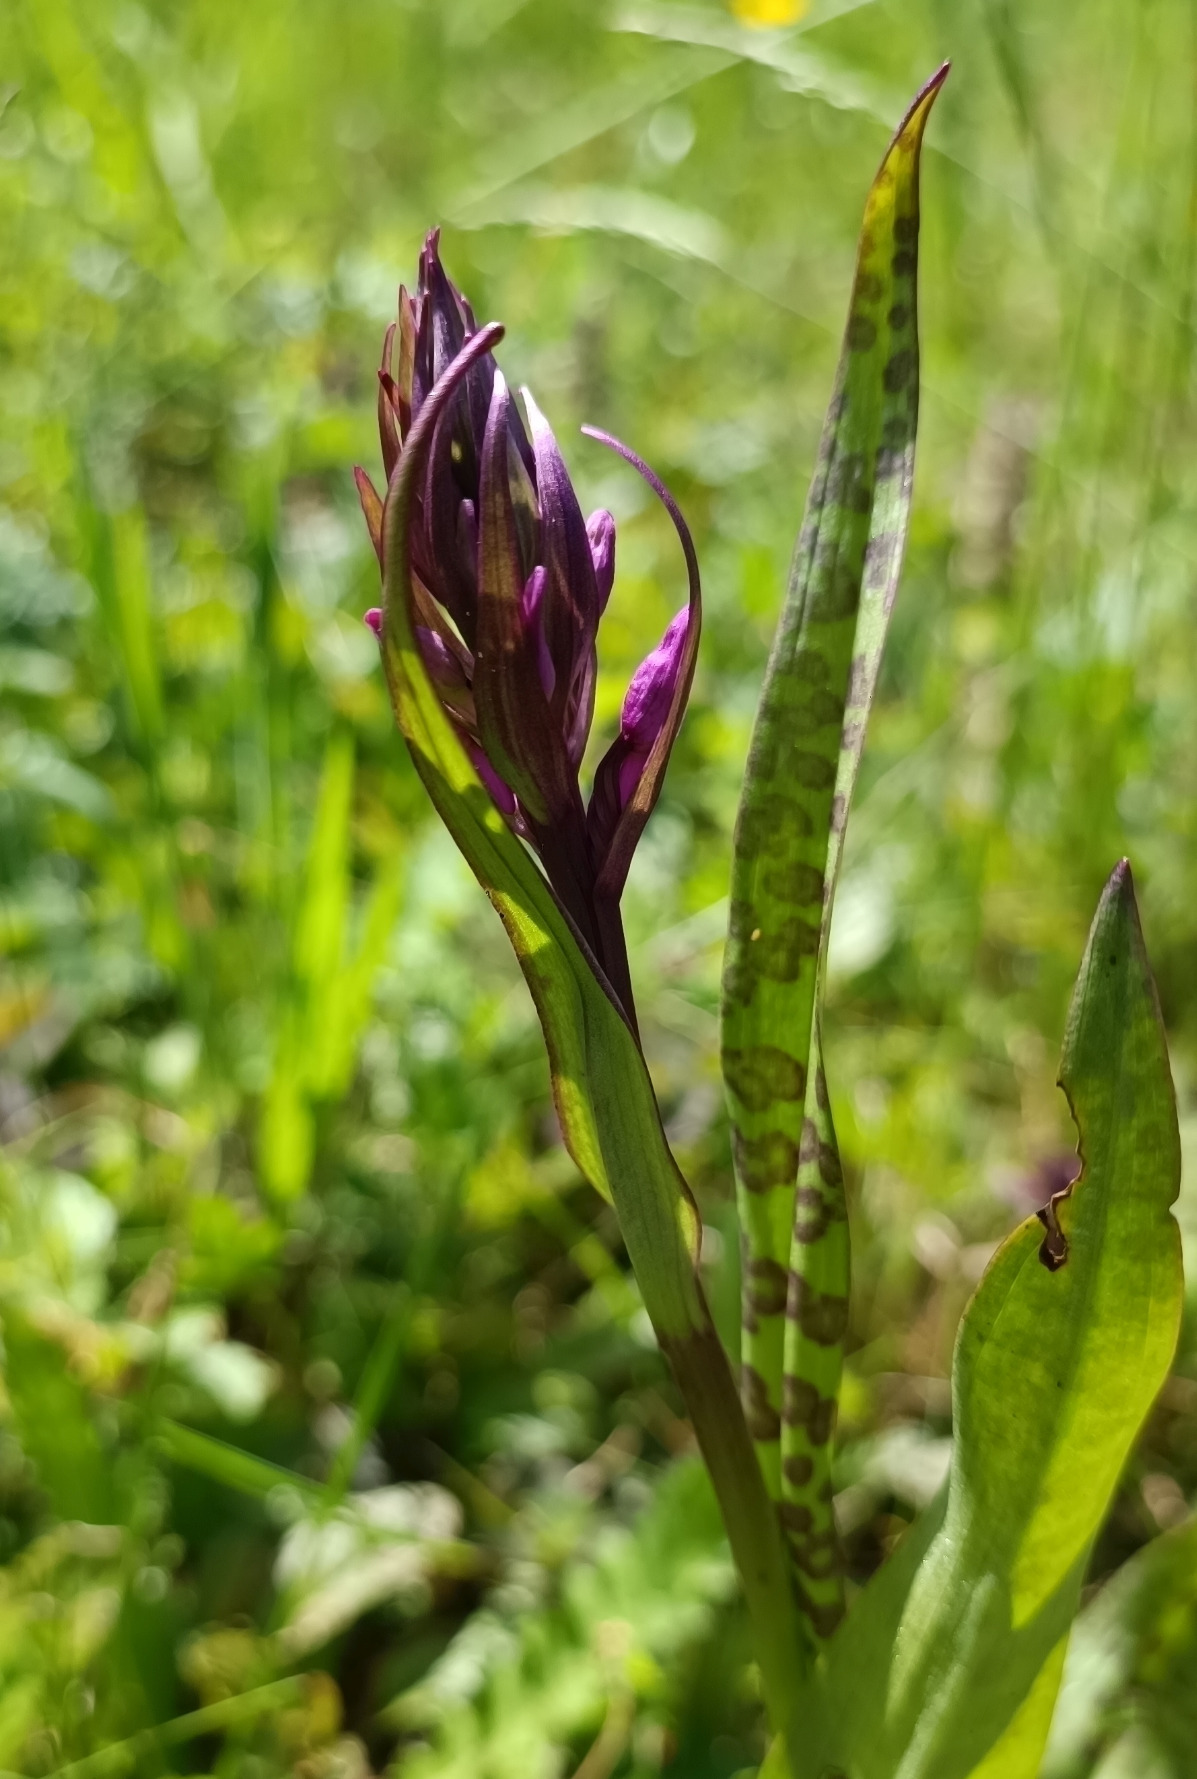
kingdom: Plantae
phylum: Tracheophyta
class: Liliopsida
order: Asparagales
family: Orchidaceae
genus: Dactylorhiza
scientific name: Dactylorhiza majalis
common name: Ringplettet gøgeurt
